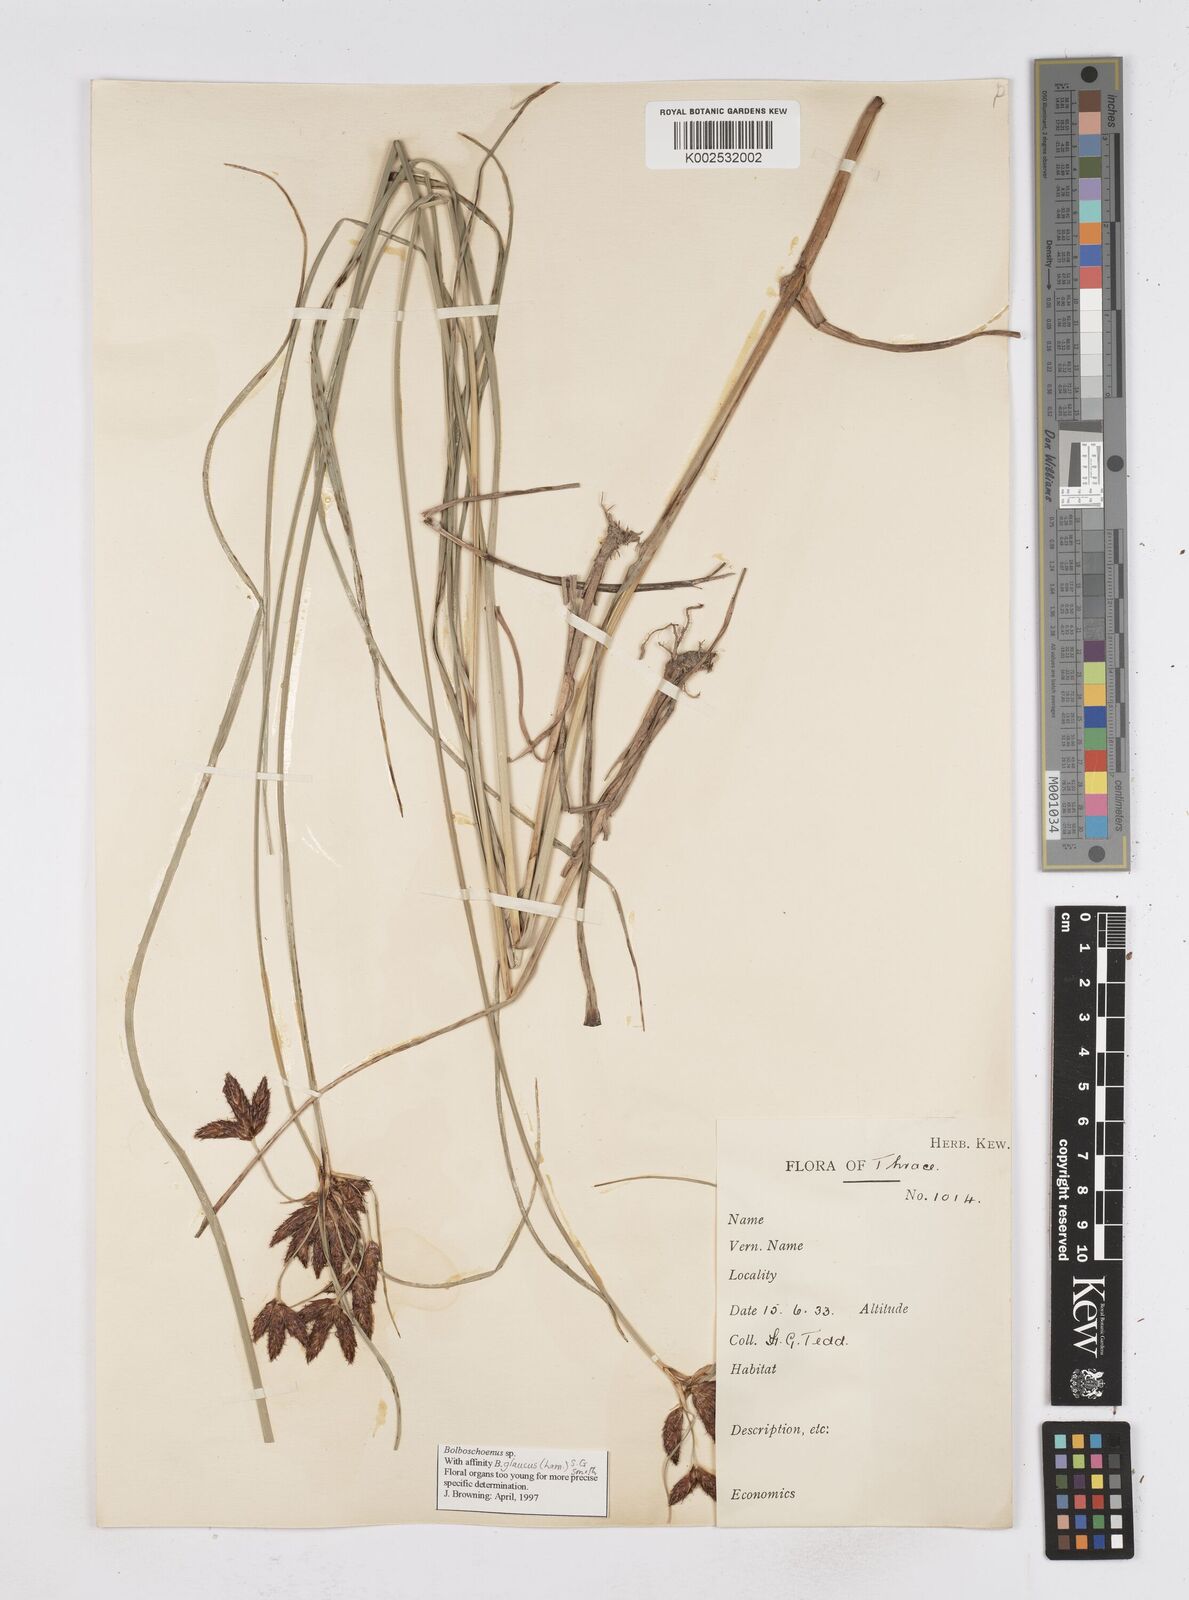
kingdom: Plantae
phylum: Tracheophyta
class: Liliopsida
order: Poales
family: Cyperaceae
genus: Bolboschoenus
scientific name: Bolboschoenus maritimus
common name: Sea club-rush
